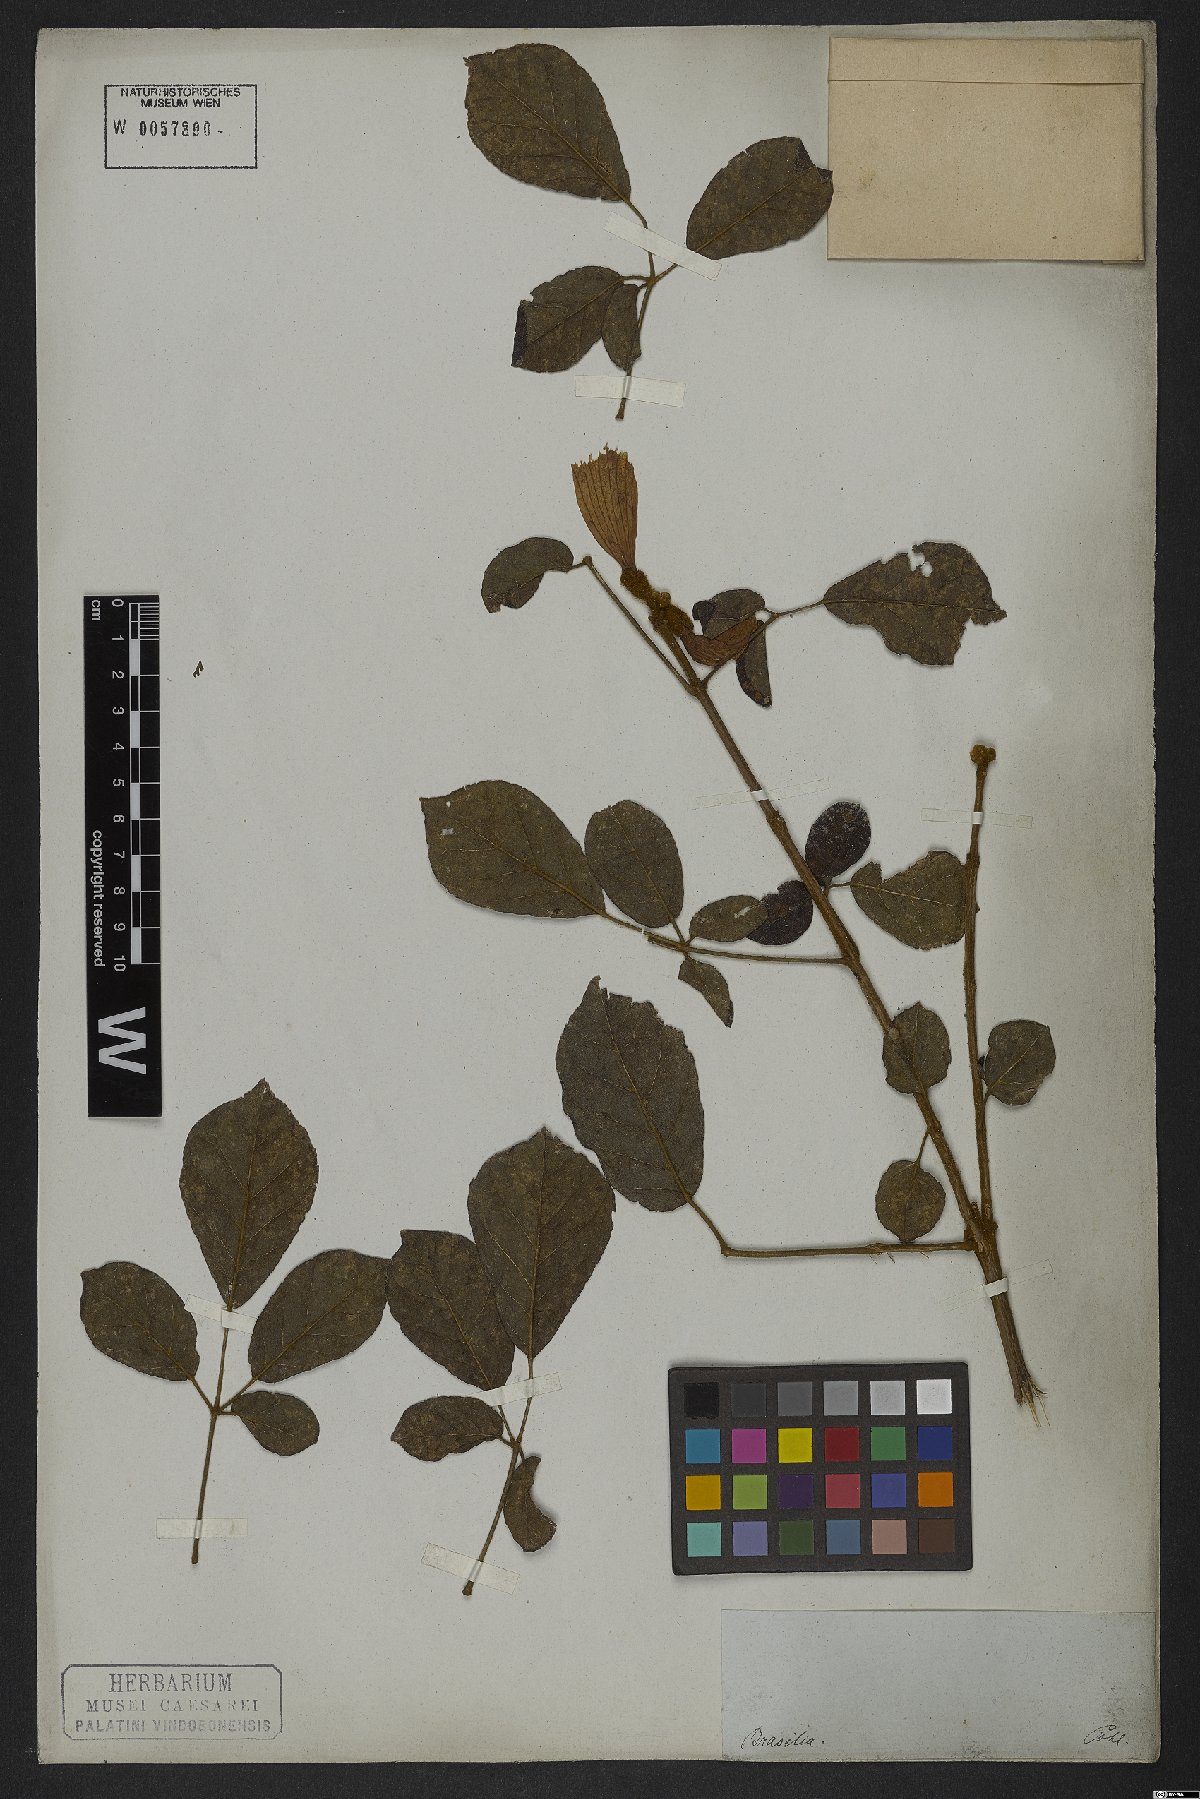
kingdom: Plantae
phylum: Tracheophyta
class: Magnoliopsida
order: Lamiales
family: Bignoniaceae
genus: Handroanthus
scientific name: Handroanthus chrysotrichus
